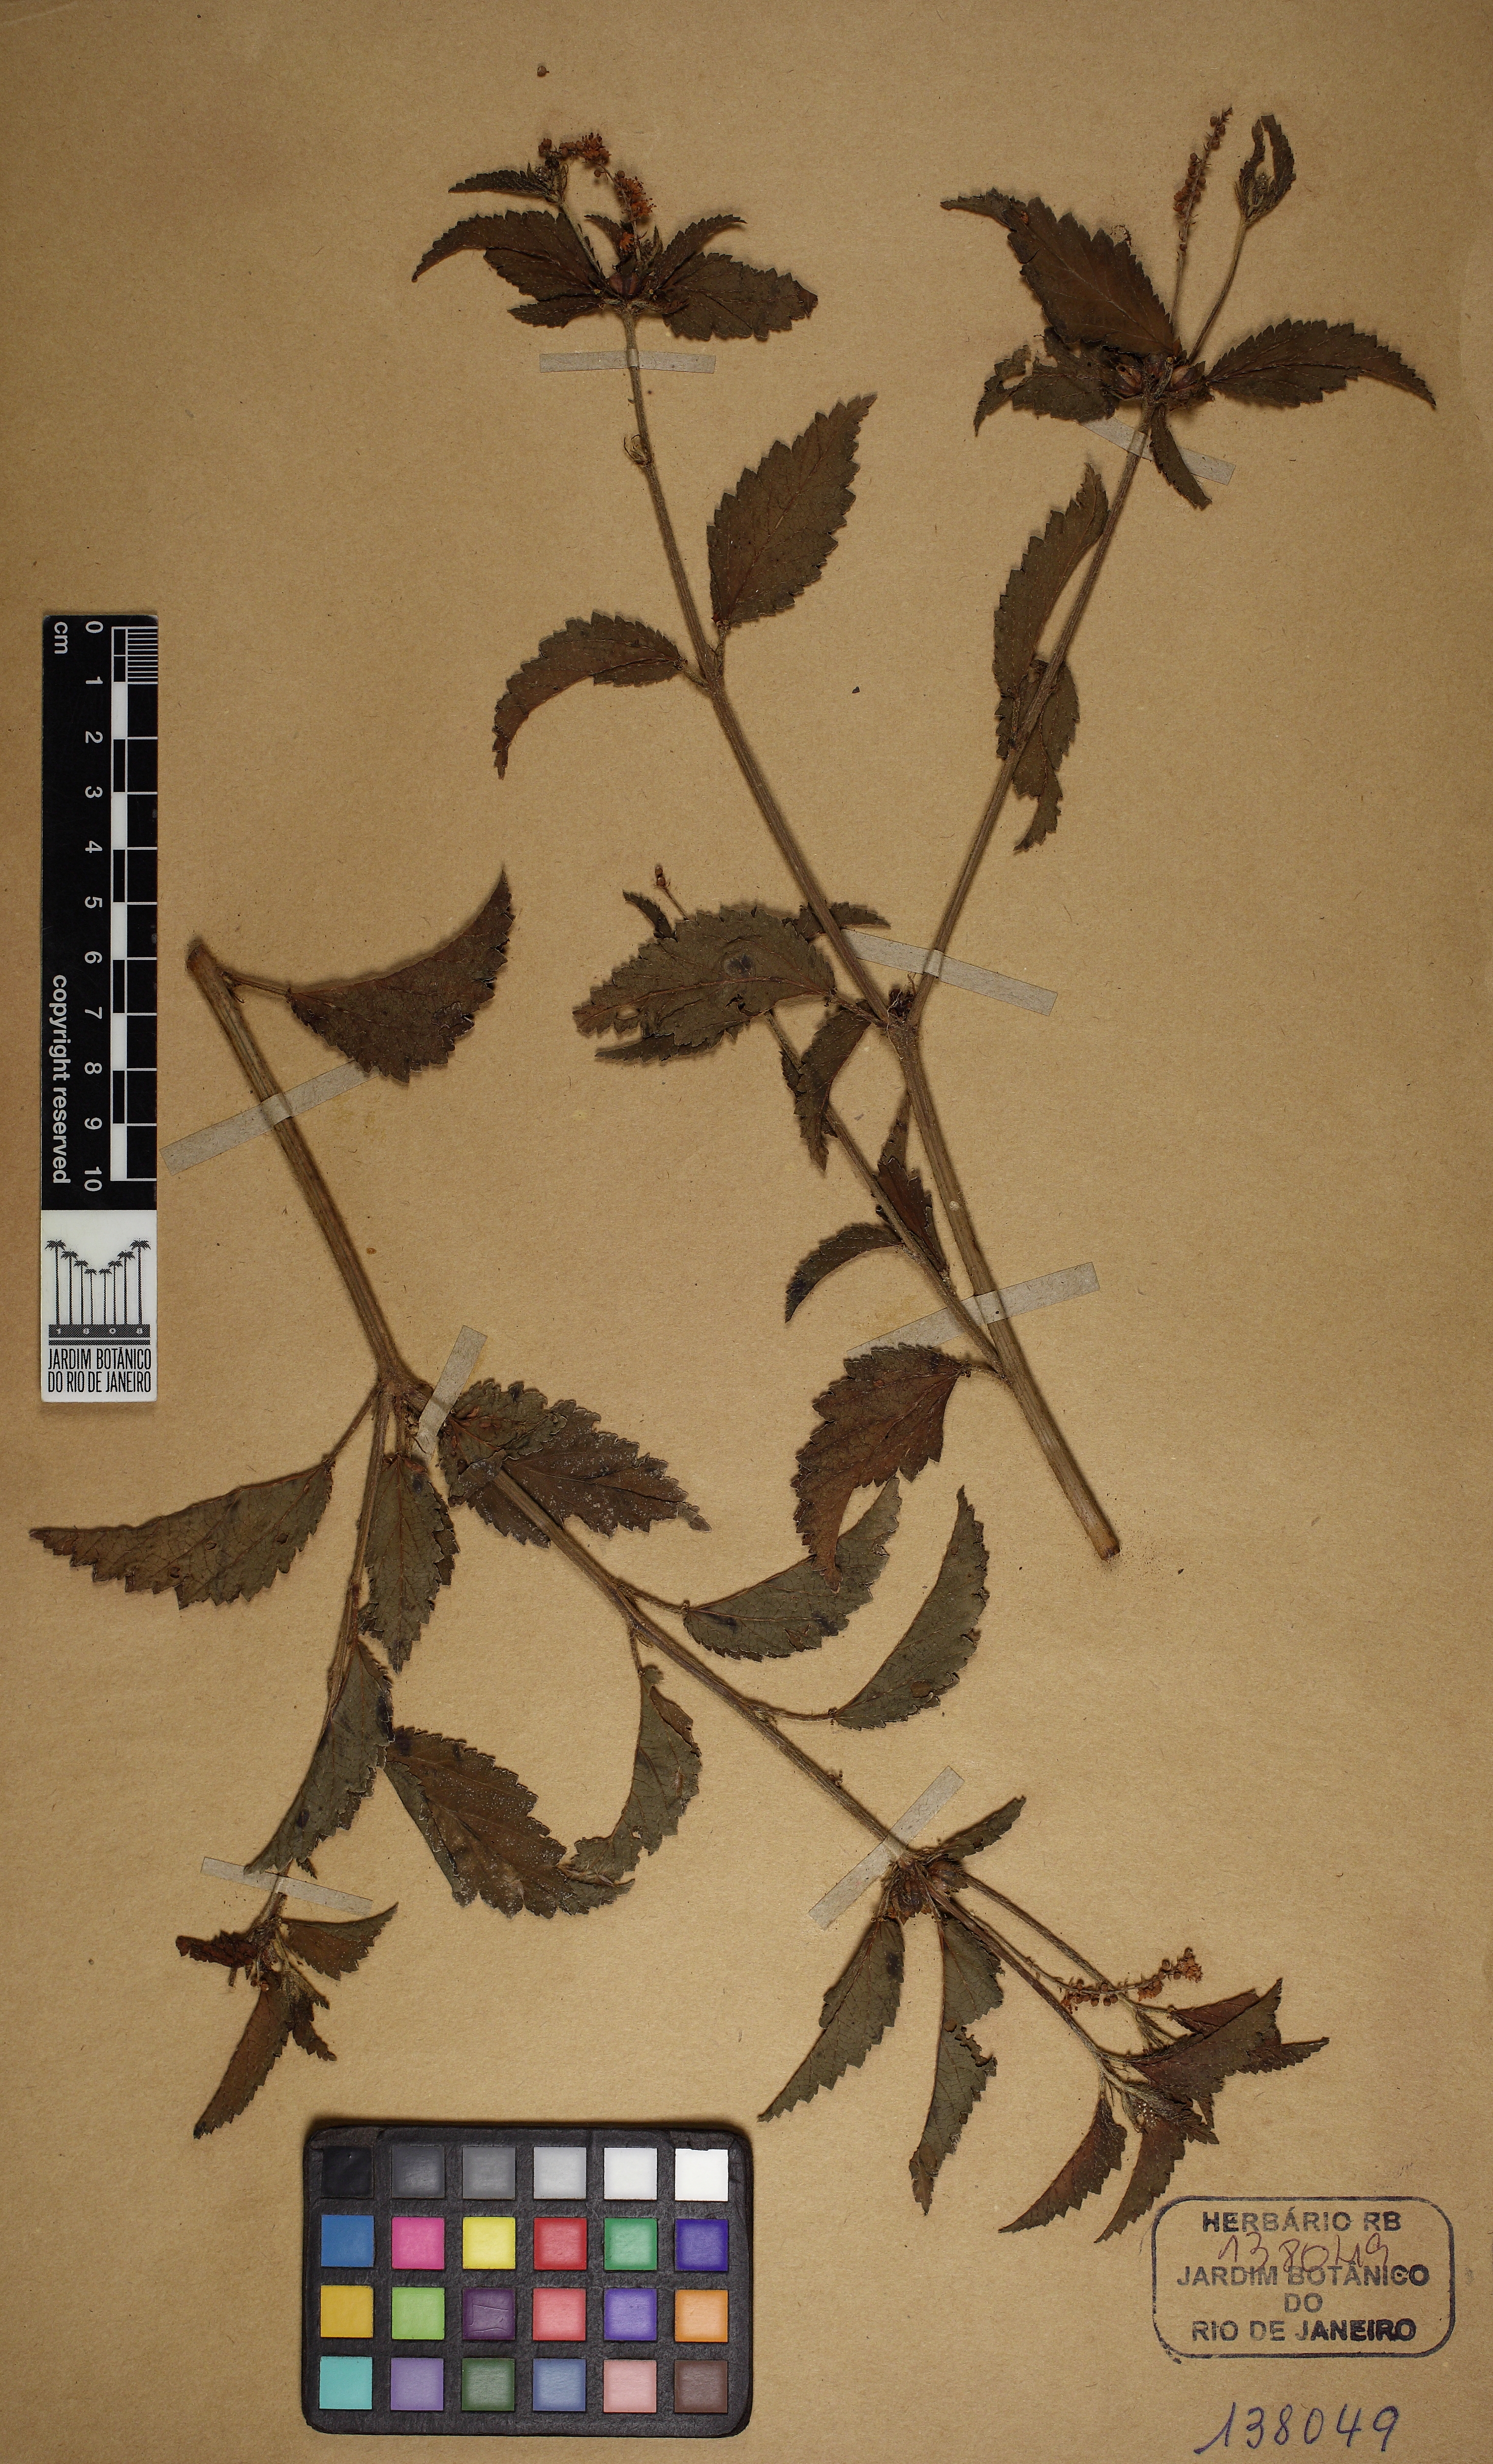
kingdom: Plantae
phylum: Tracheophyta
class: Magnoliopsida
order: Malpighiales
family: Euphorbiaceae
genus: Croton
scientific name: Croton lundianus
